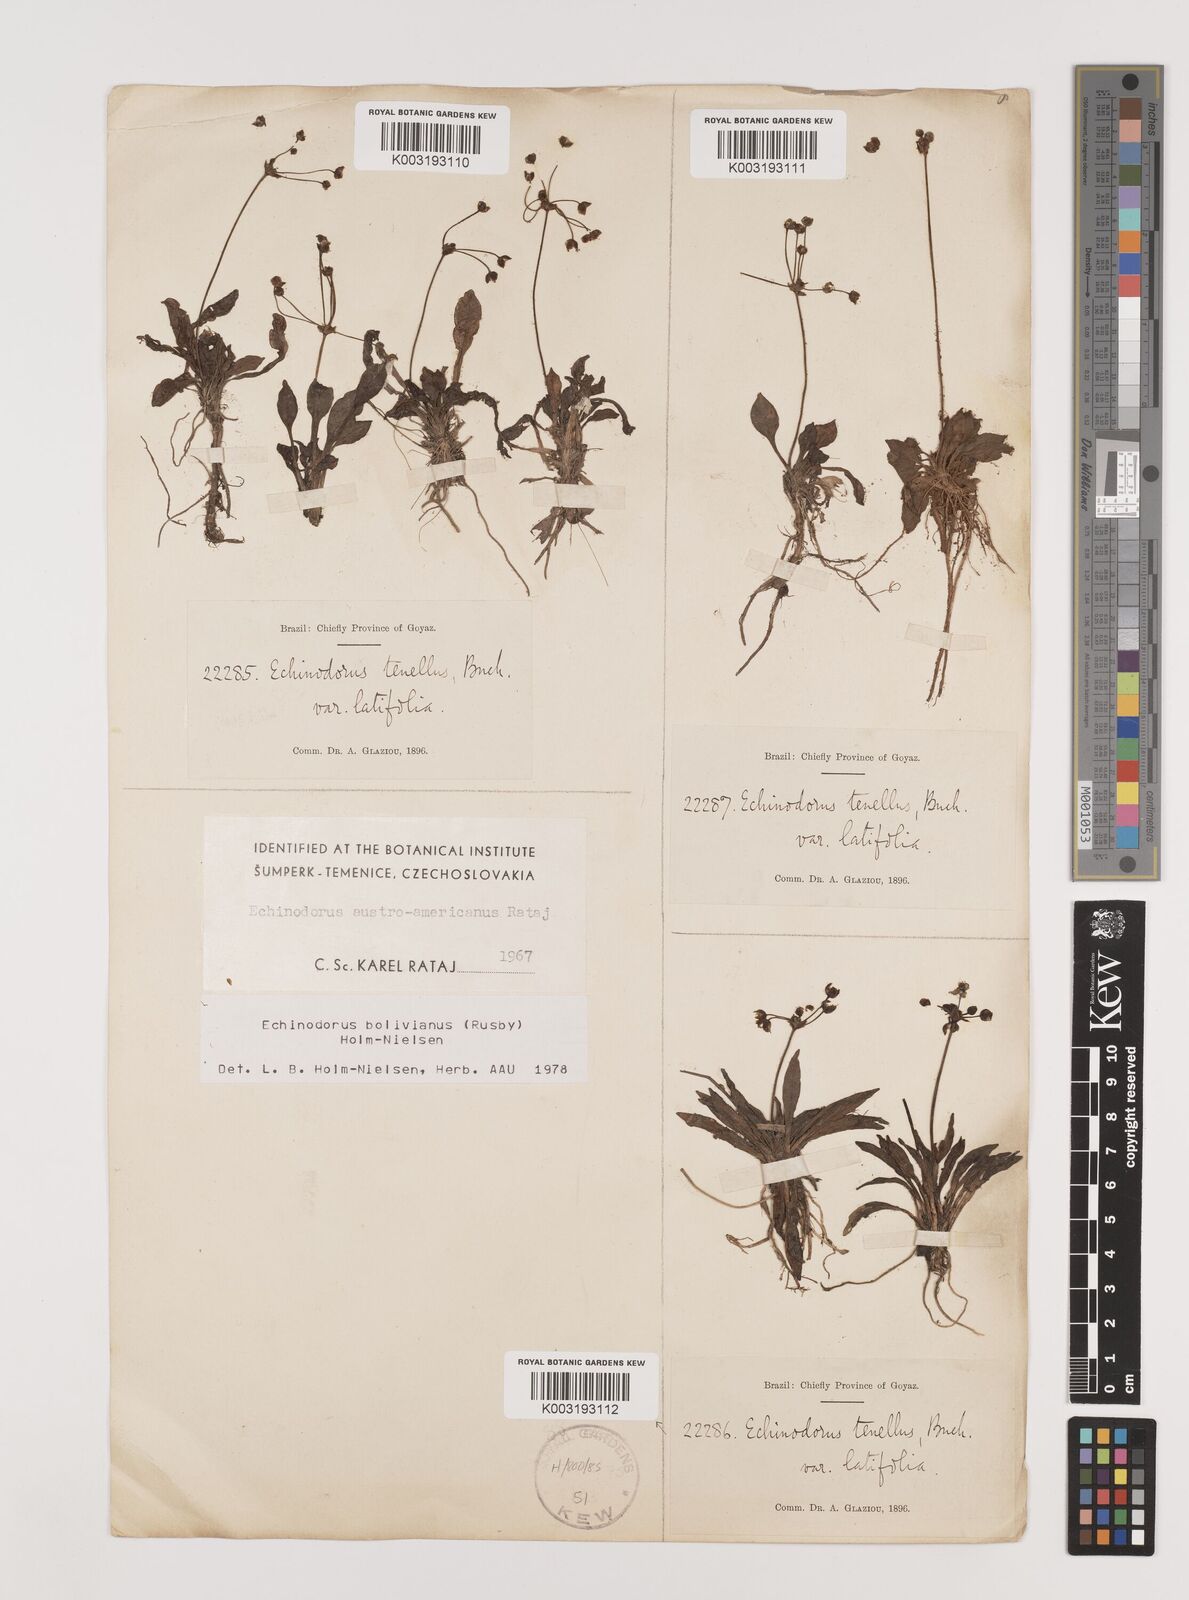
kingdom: Plantae
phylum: Tracheophyta
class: Liliopsida
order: Alismatales
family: Alismataceae
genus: Helanthium
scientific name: Helanthium bolivianum
